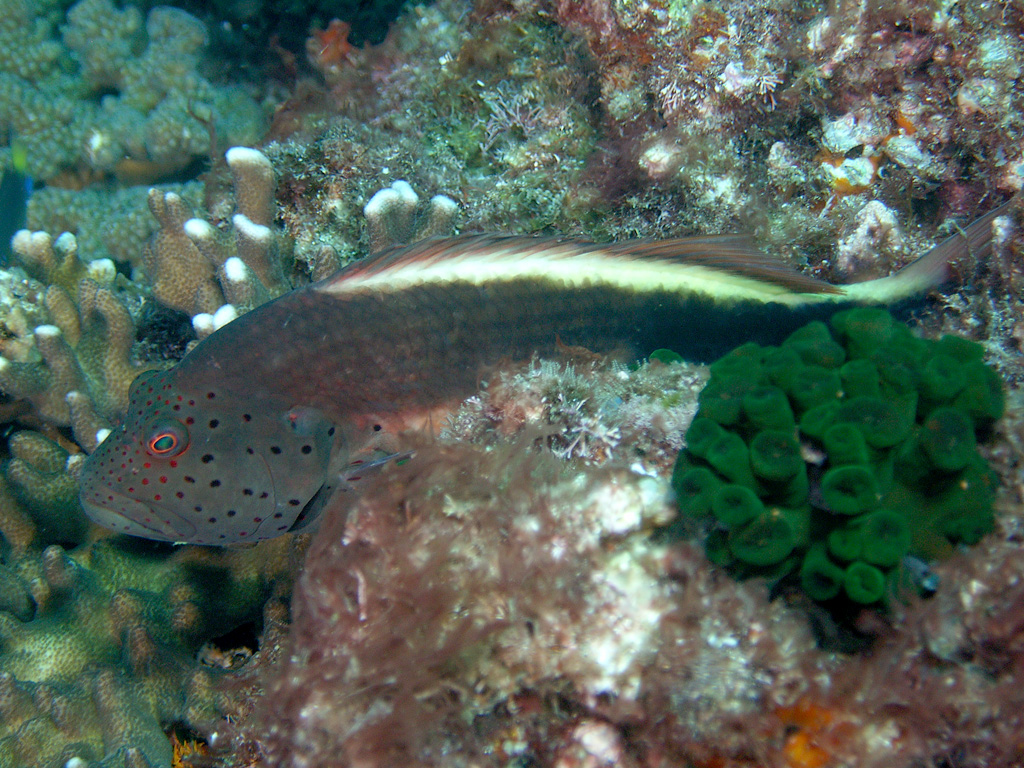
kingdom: Animalia
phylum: Chordata
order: Perciformes
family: Cirrhitidae
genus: Paracirrhites
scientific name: Paracirrhites forsteri
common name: Freckled hawkfish
